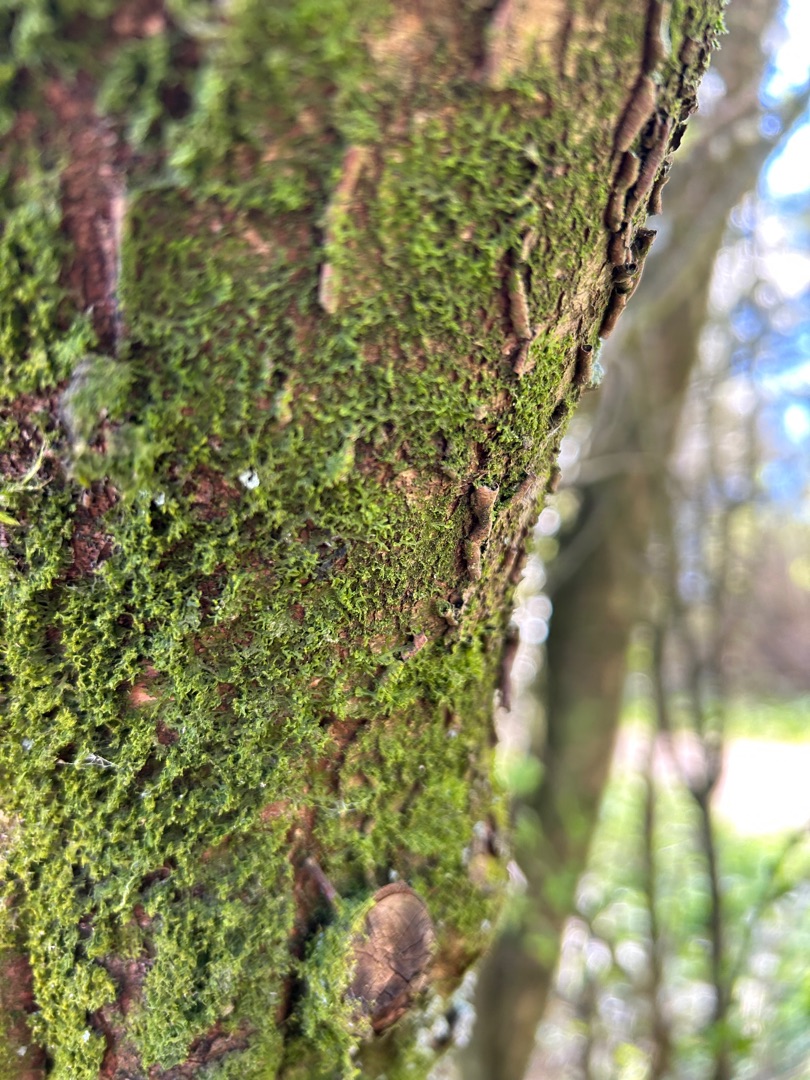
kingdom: Plantae
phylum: Marchantiophyta
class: Jungermanniopsida
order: Metzgeriales
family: Metzgeriaceae
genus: Metzgeria
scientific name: Metzgeria
